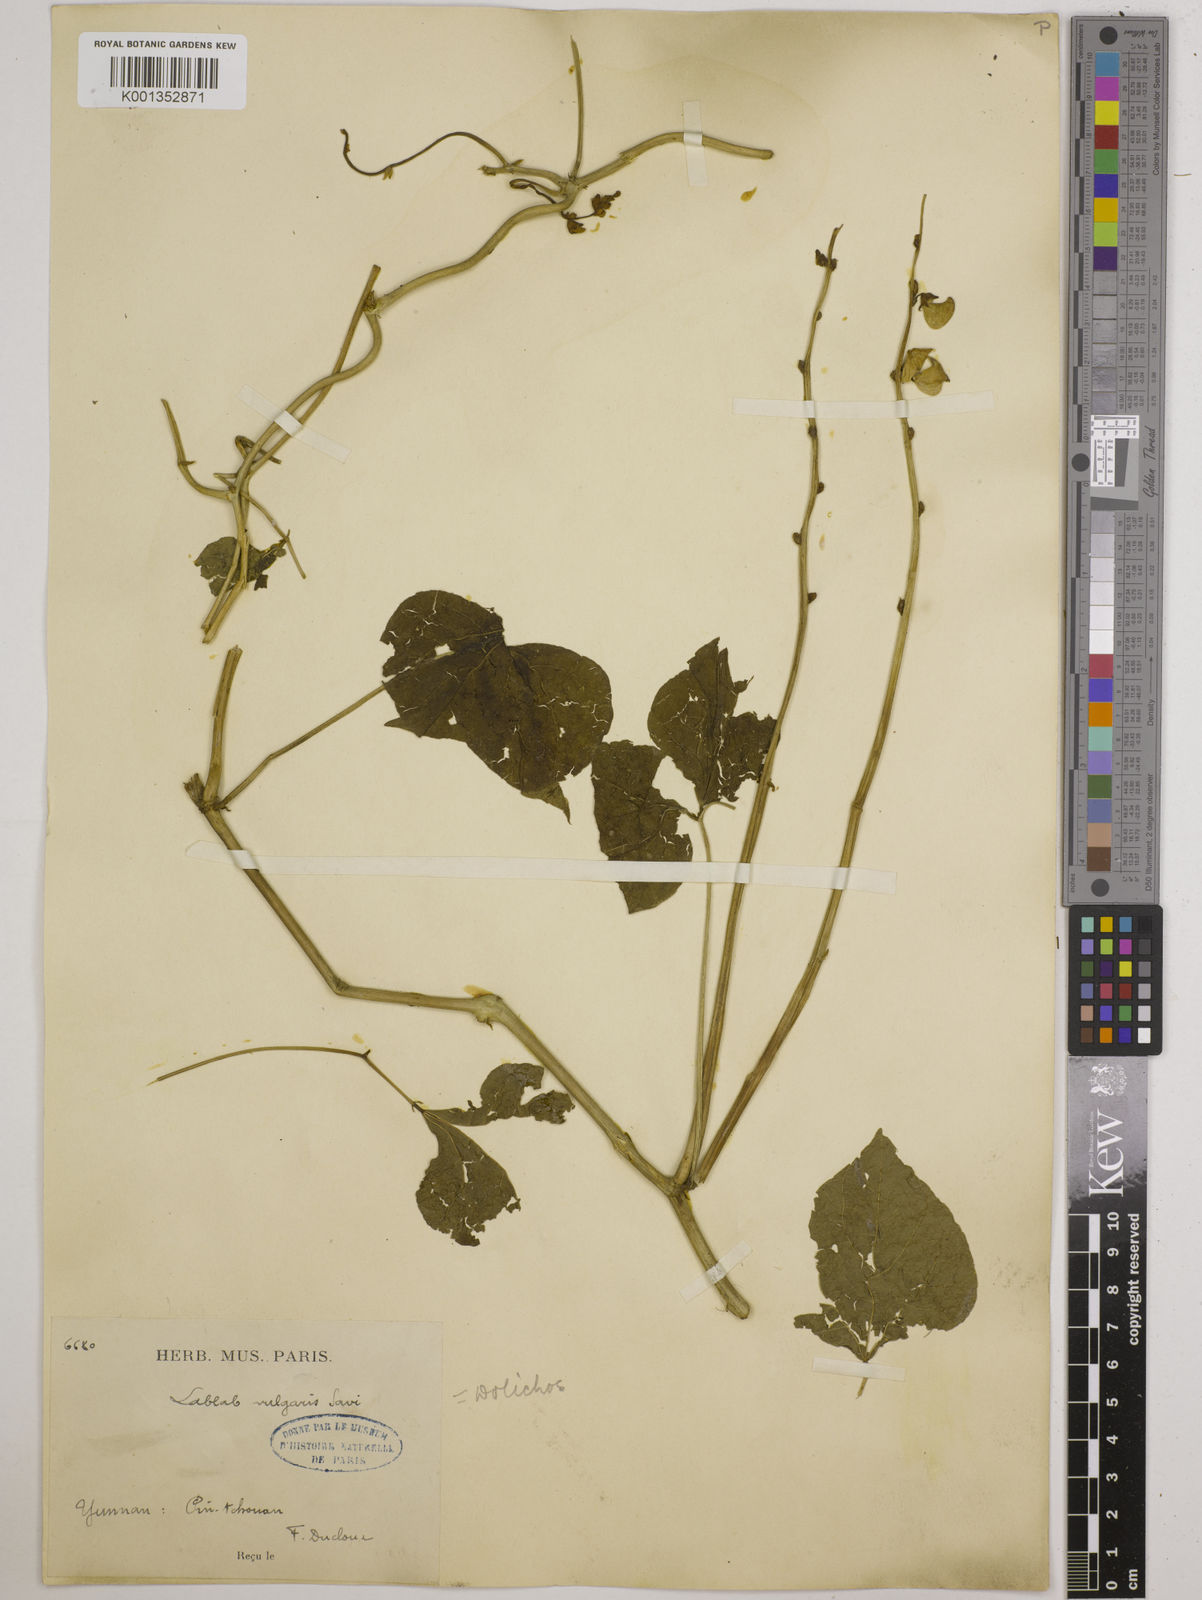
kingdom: Plantae
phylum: Tracheophyta
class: Magnoliopsida
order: Fabales
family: Fabaceae
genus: Lablab
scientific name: Lablab purpureus
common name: Lablab-bean
